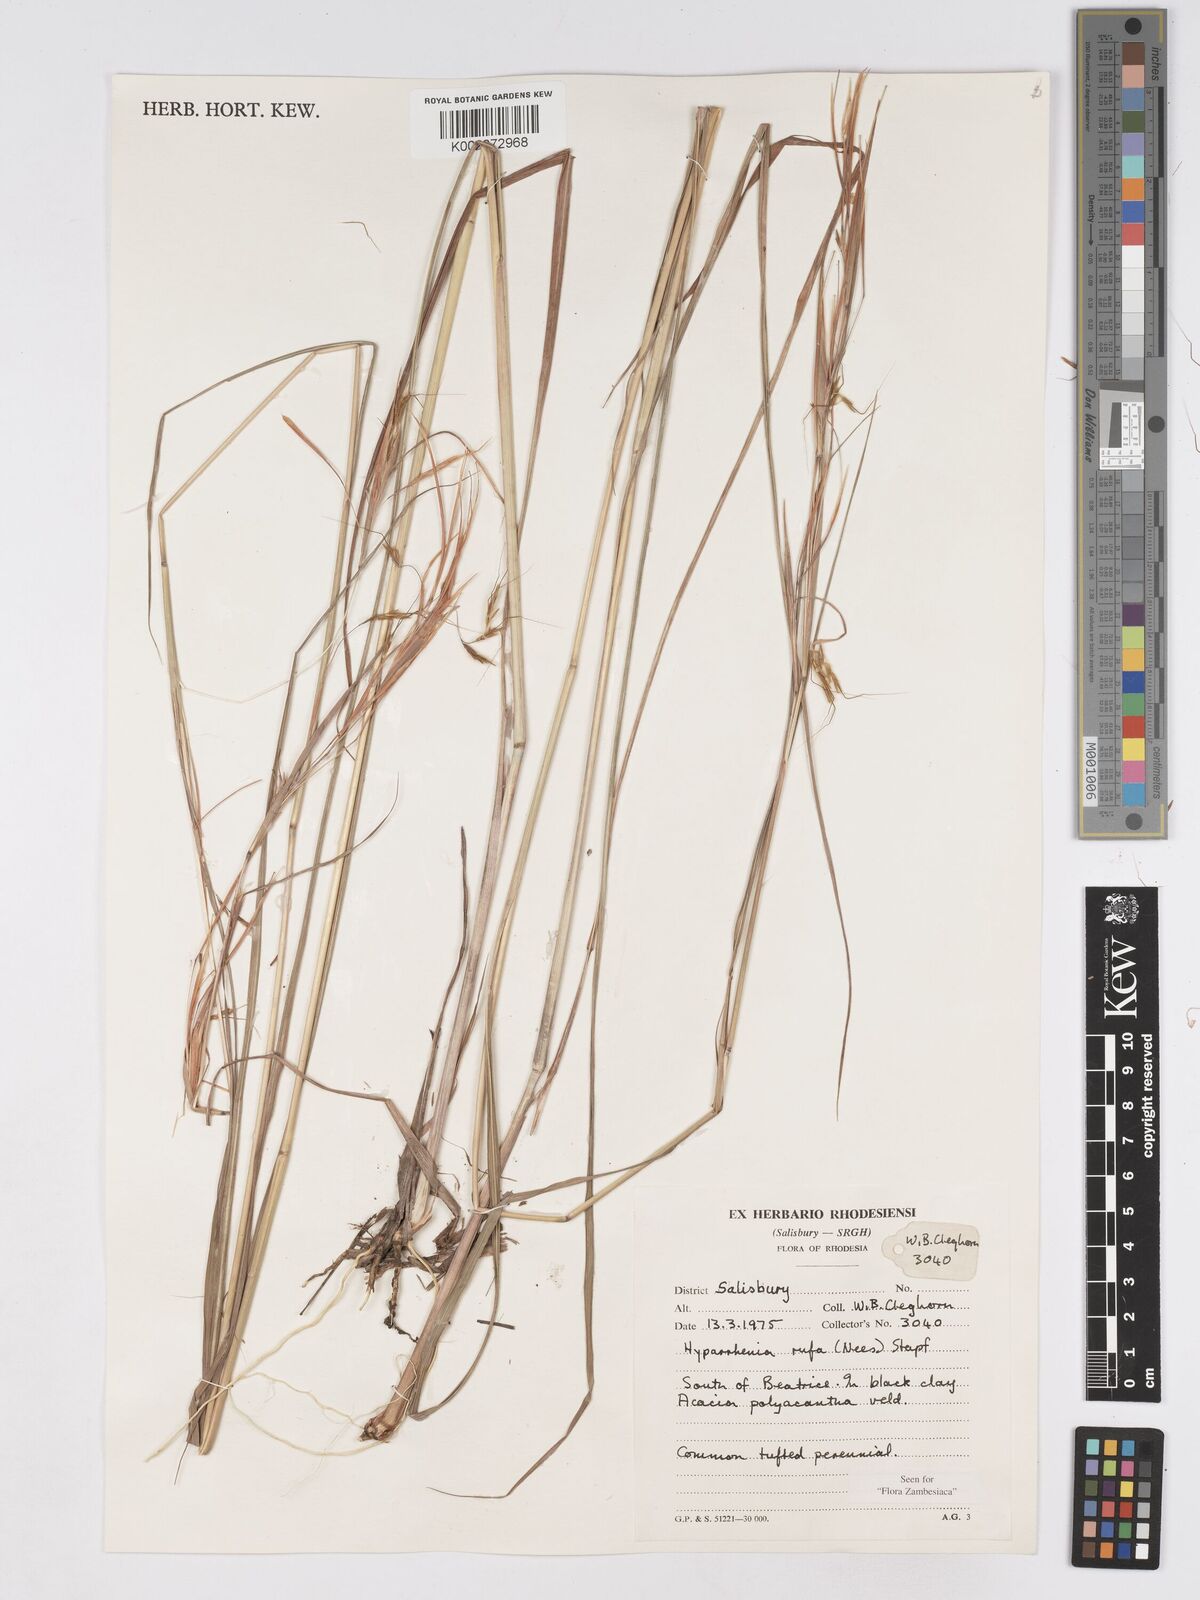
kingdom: Plantae
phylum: Tracheophyta
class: Liliopsida
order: Poales
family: Poaceae
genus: Hyparrhenia
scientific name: Hyparrhenia rufa
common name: Jaraguagrass
